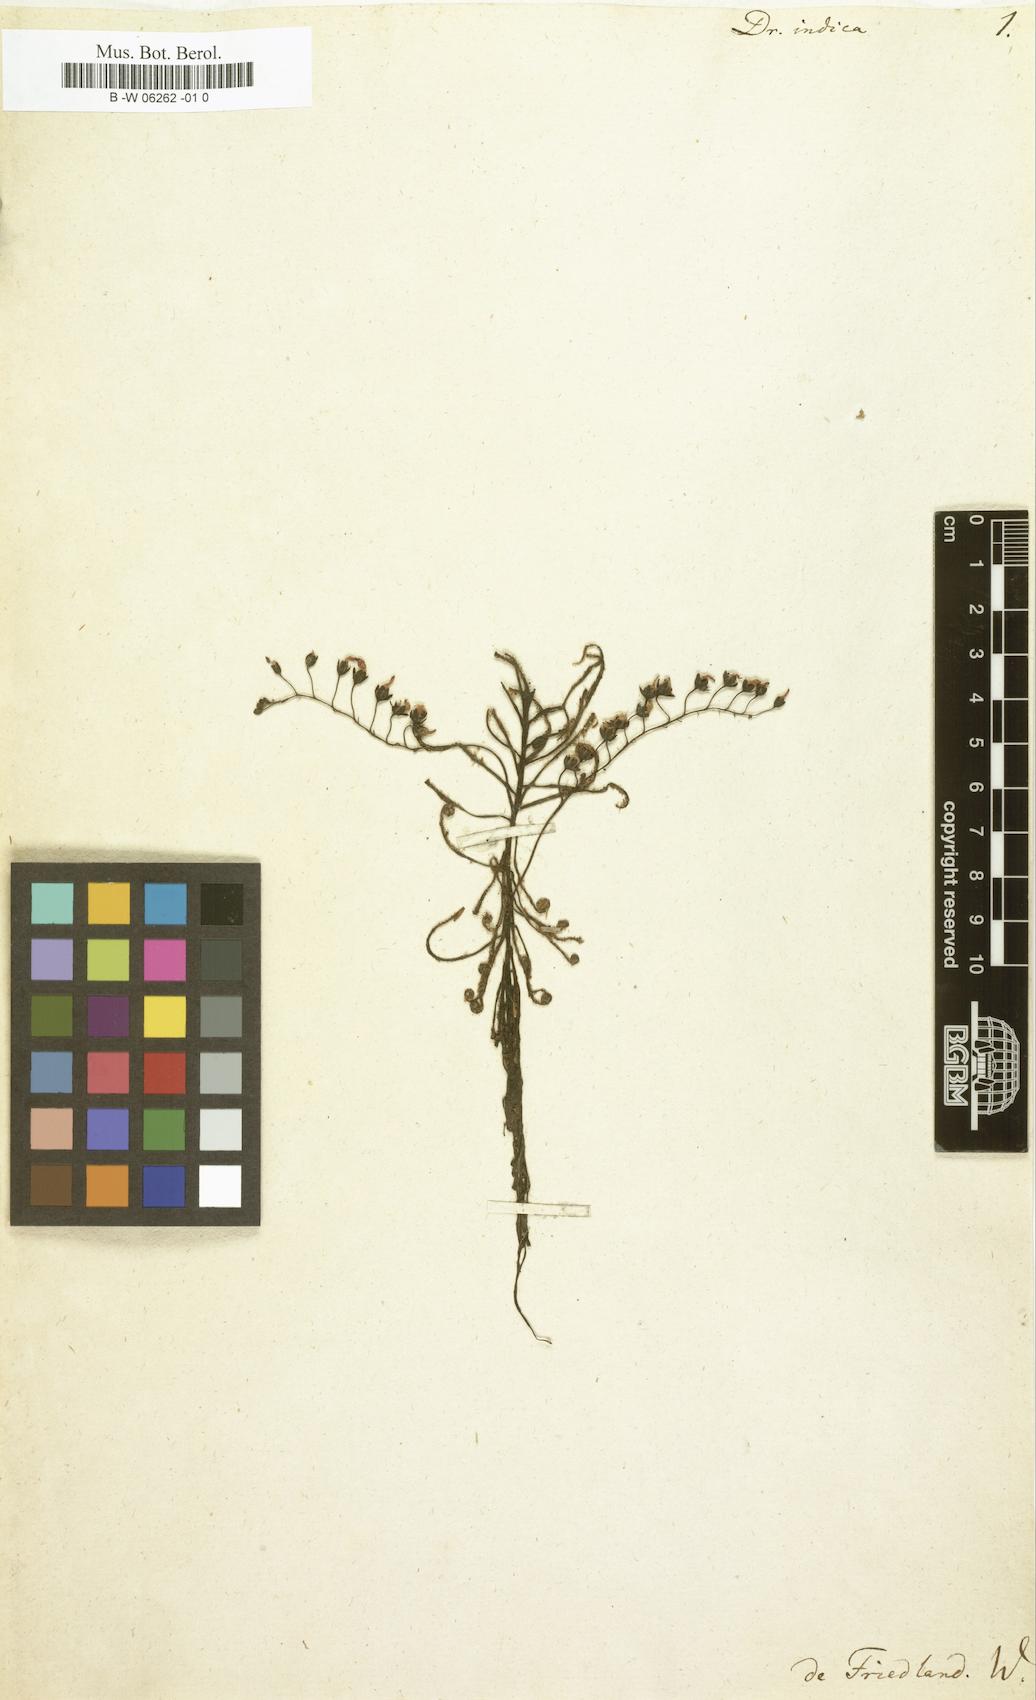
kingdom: Plantae
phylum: Tracheophyta
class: Magnoliopsida
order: Caryophyllales
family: Droseraceae
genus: Drosera
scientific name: Drosera indica
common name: Indian sundew
